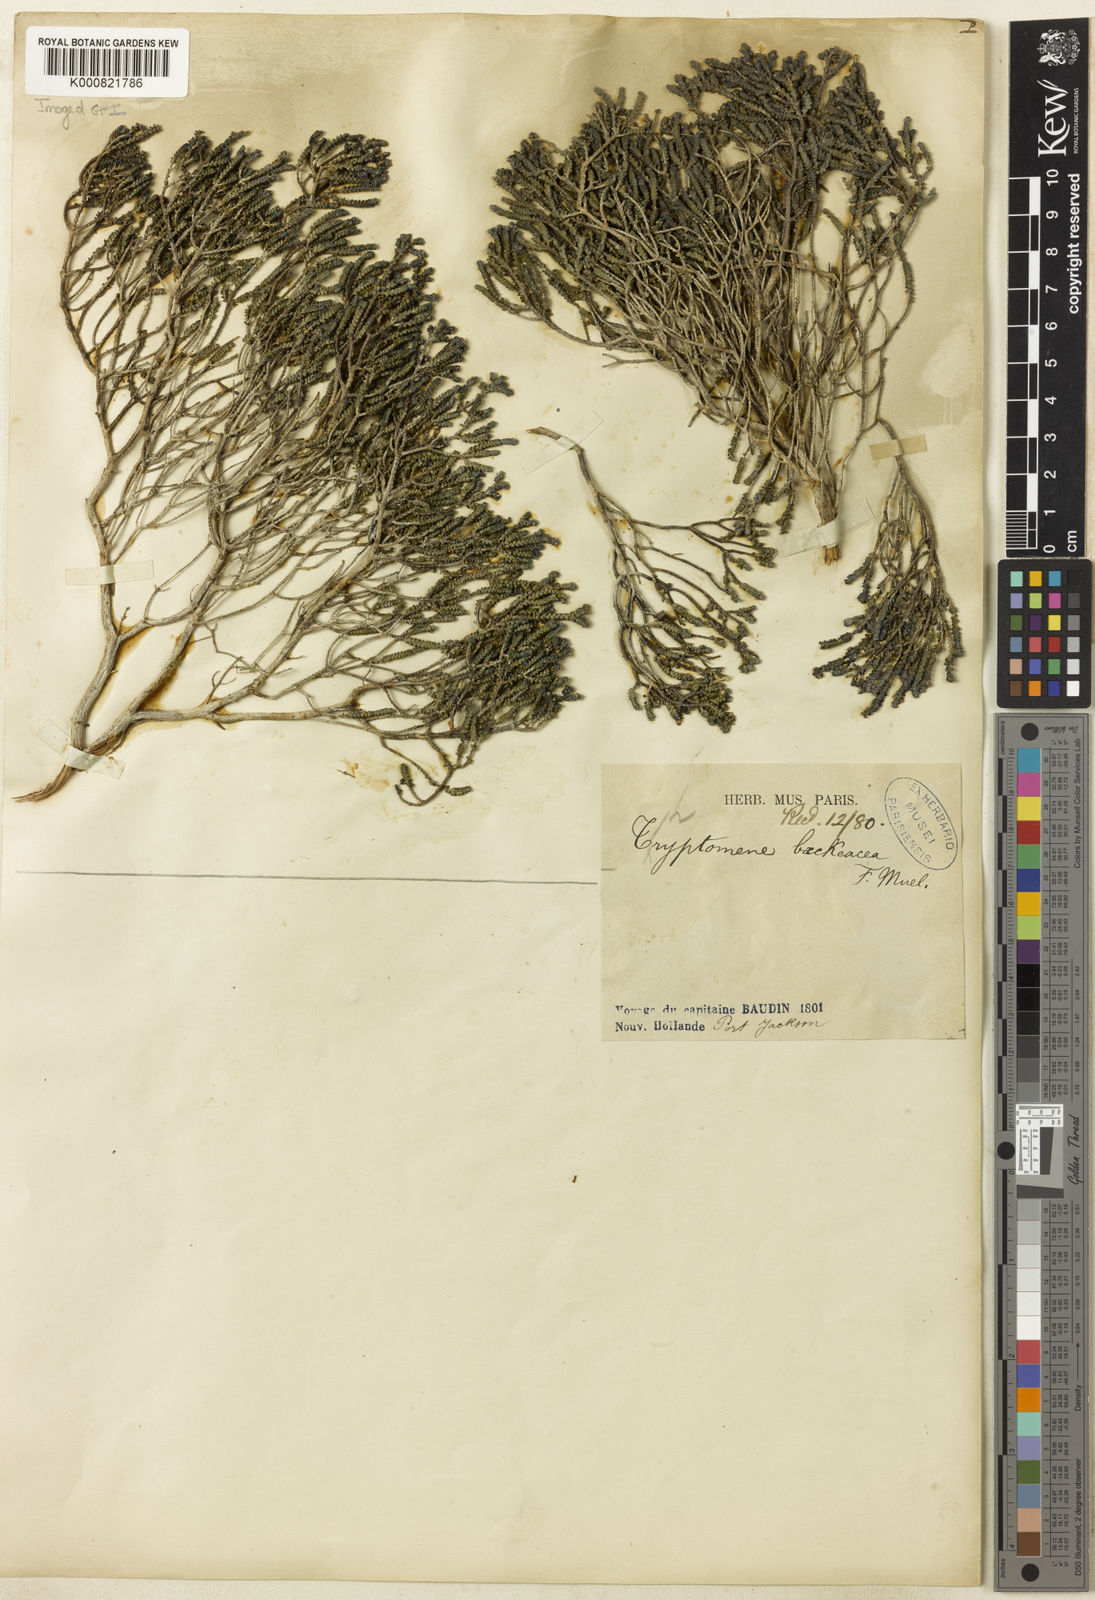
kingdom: Plantae
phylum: Tracheophyta
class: Magnoliopsida
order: Myrtales
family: Myrtaceae
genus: Thryptomene
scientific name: Thryptomene baeckeacea
